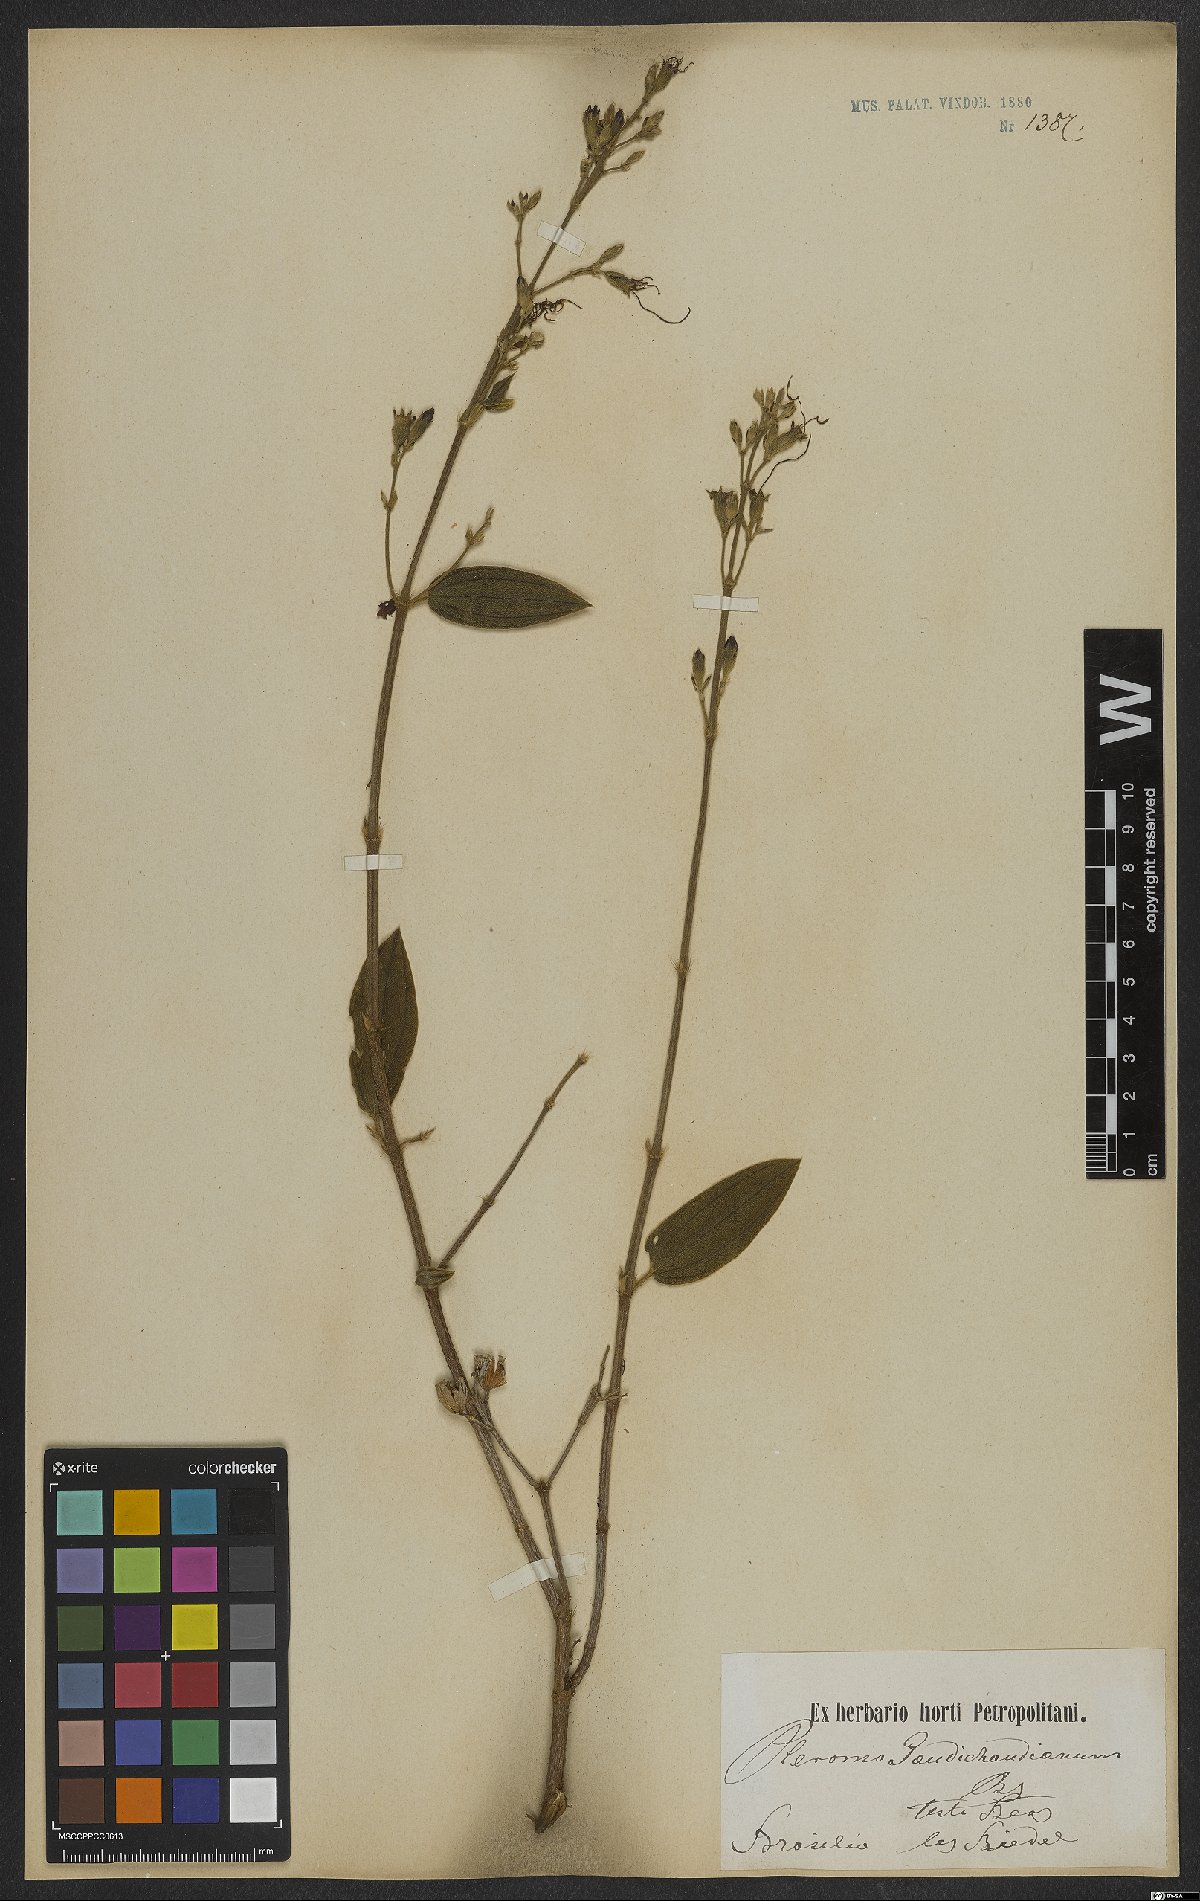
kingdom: Plantae
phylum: Tracheophyta
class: Magnoliopsida
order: Myrtales
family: Melastomataceae
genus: Pleroma
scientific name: Pleroma gaudichaudianum
